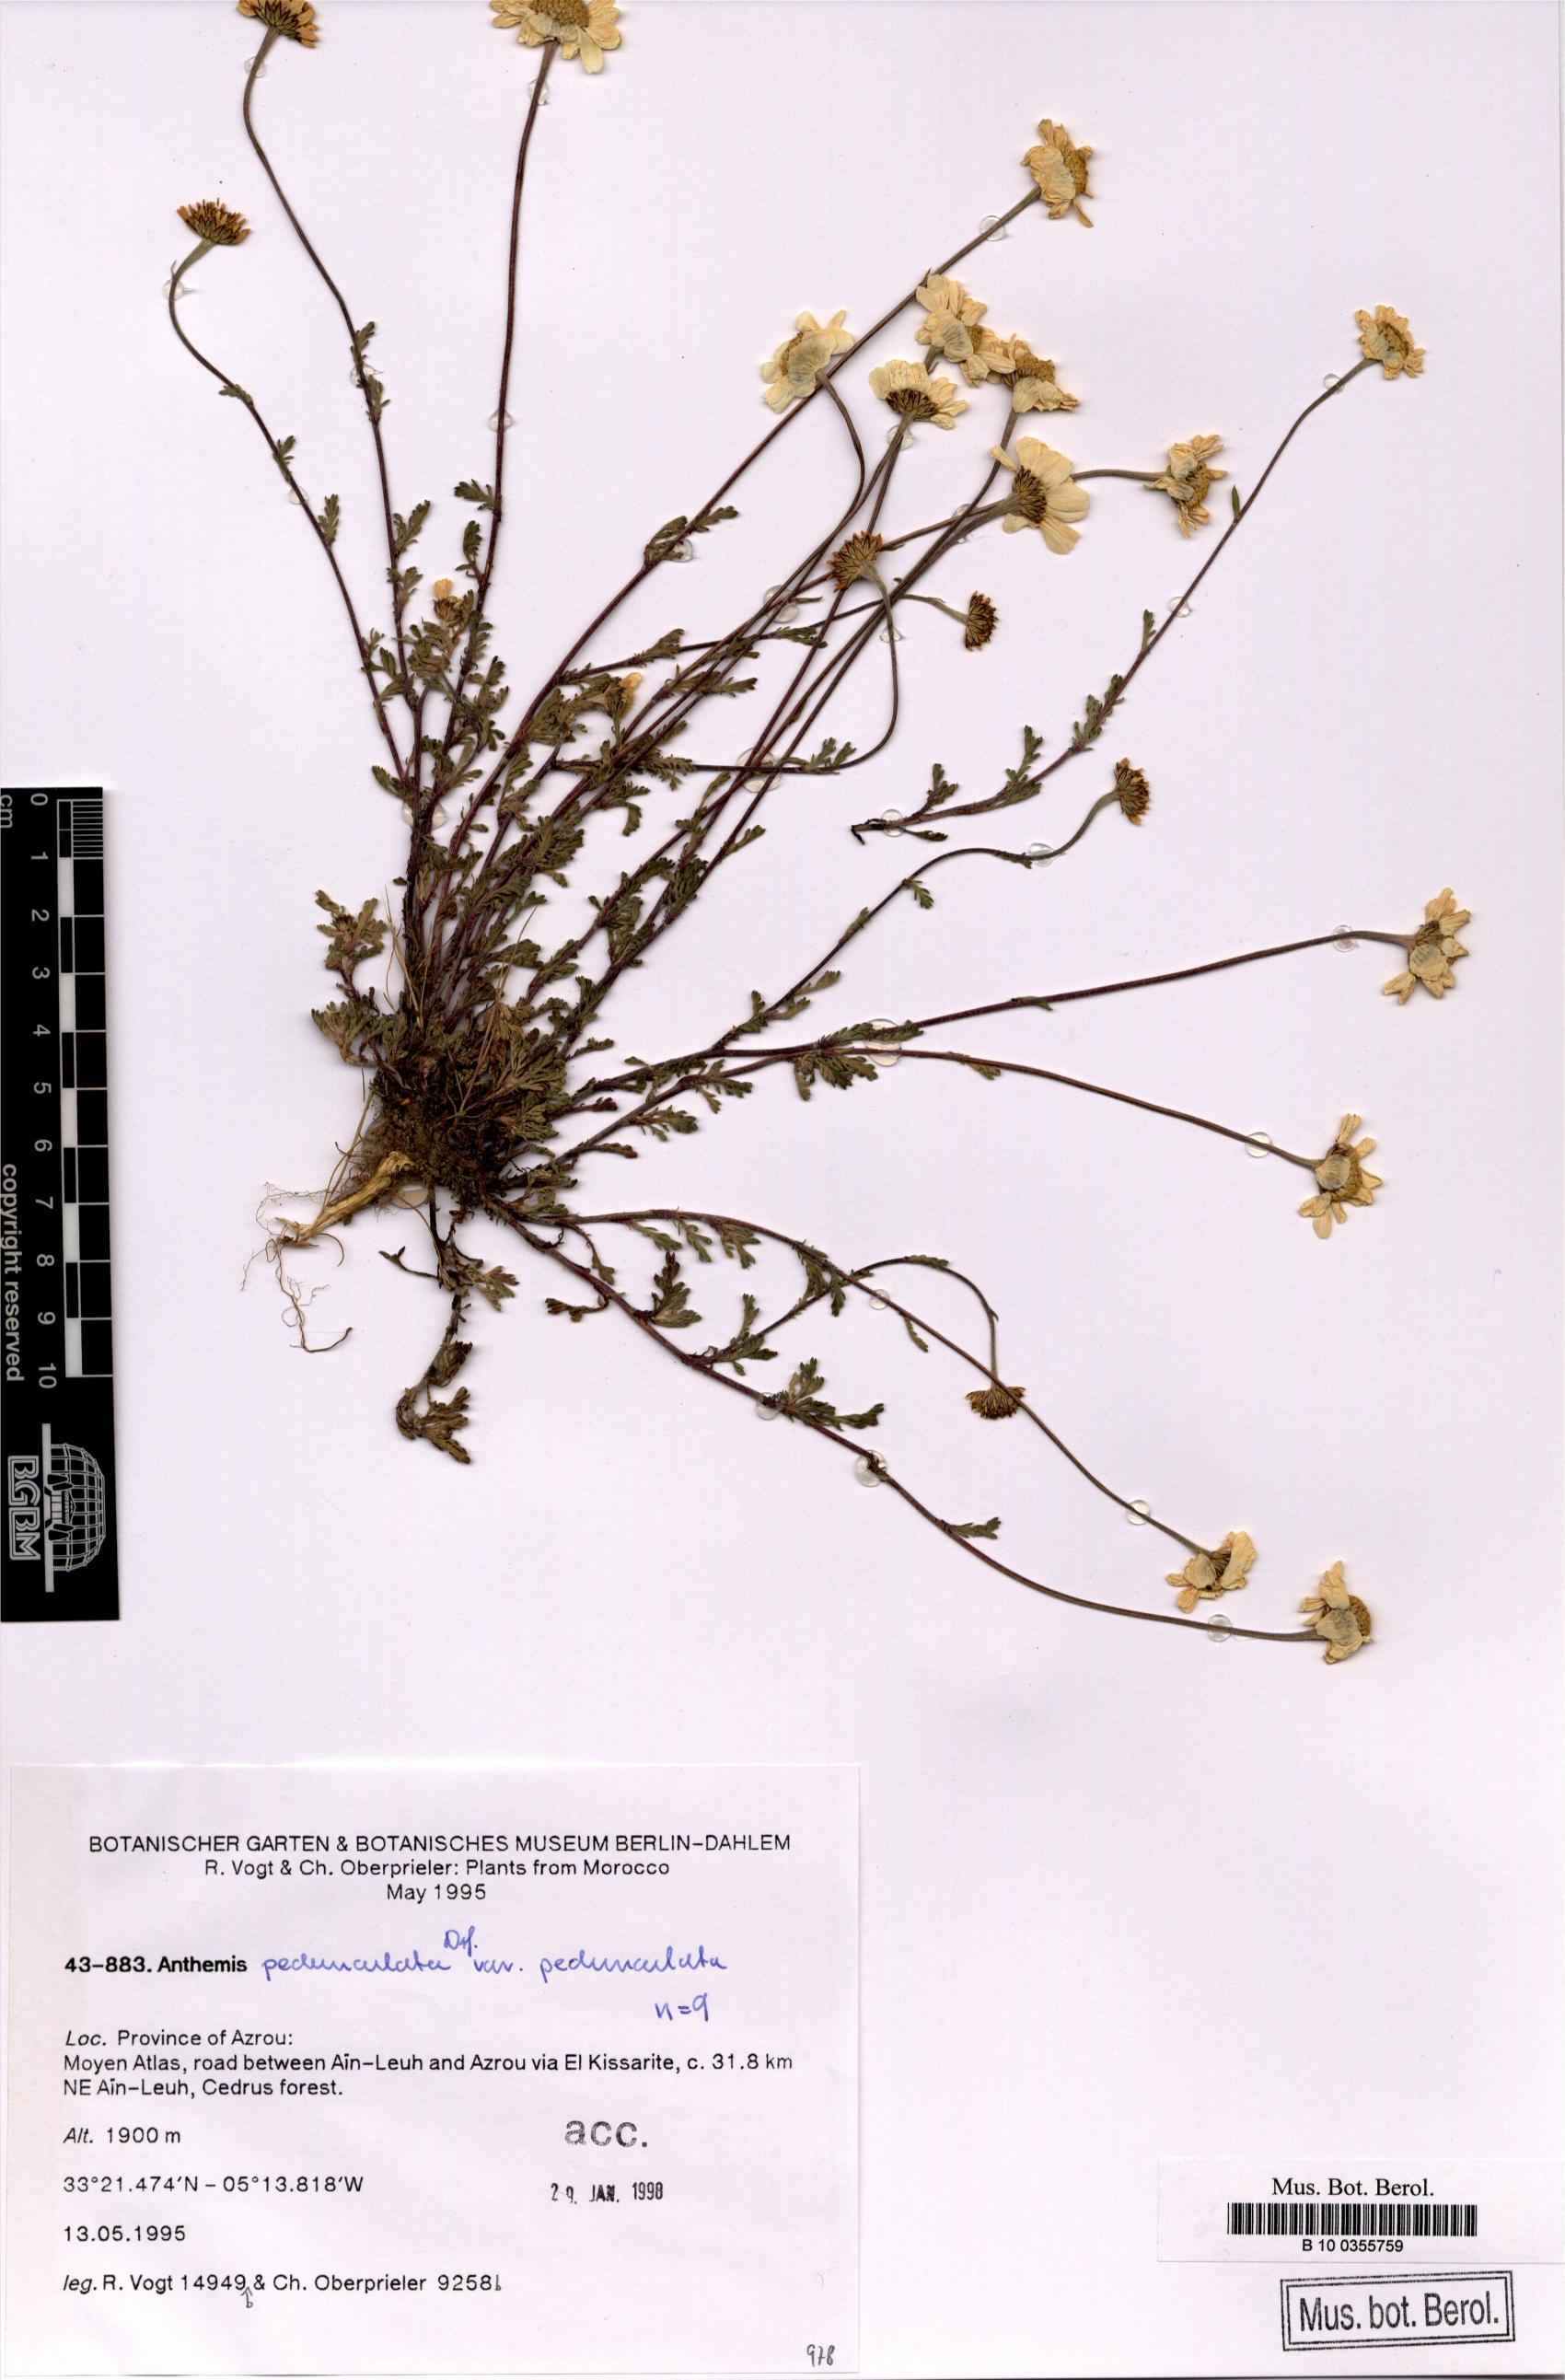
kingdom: Plantae
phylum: Tracheophyta
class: Magnoliopsida
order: Asterales
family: Asteraceae
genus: Anthemis
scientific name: Anthemis pedunculata
